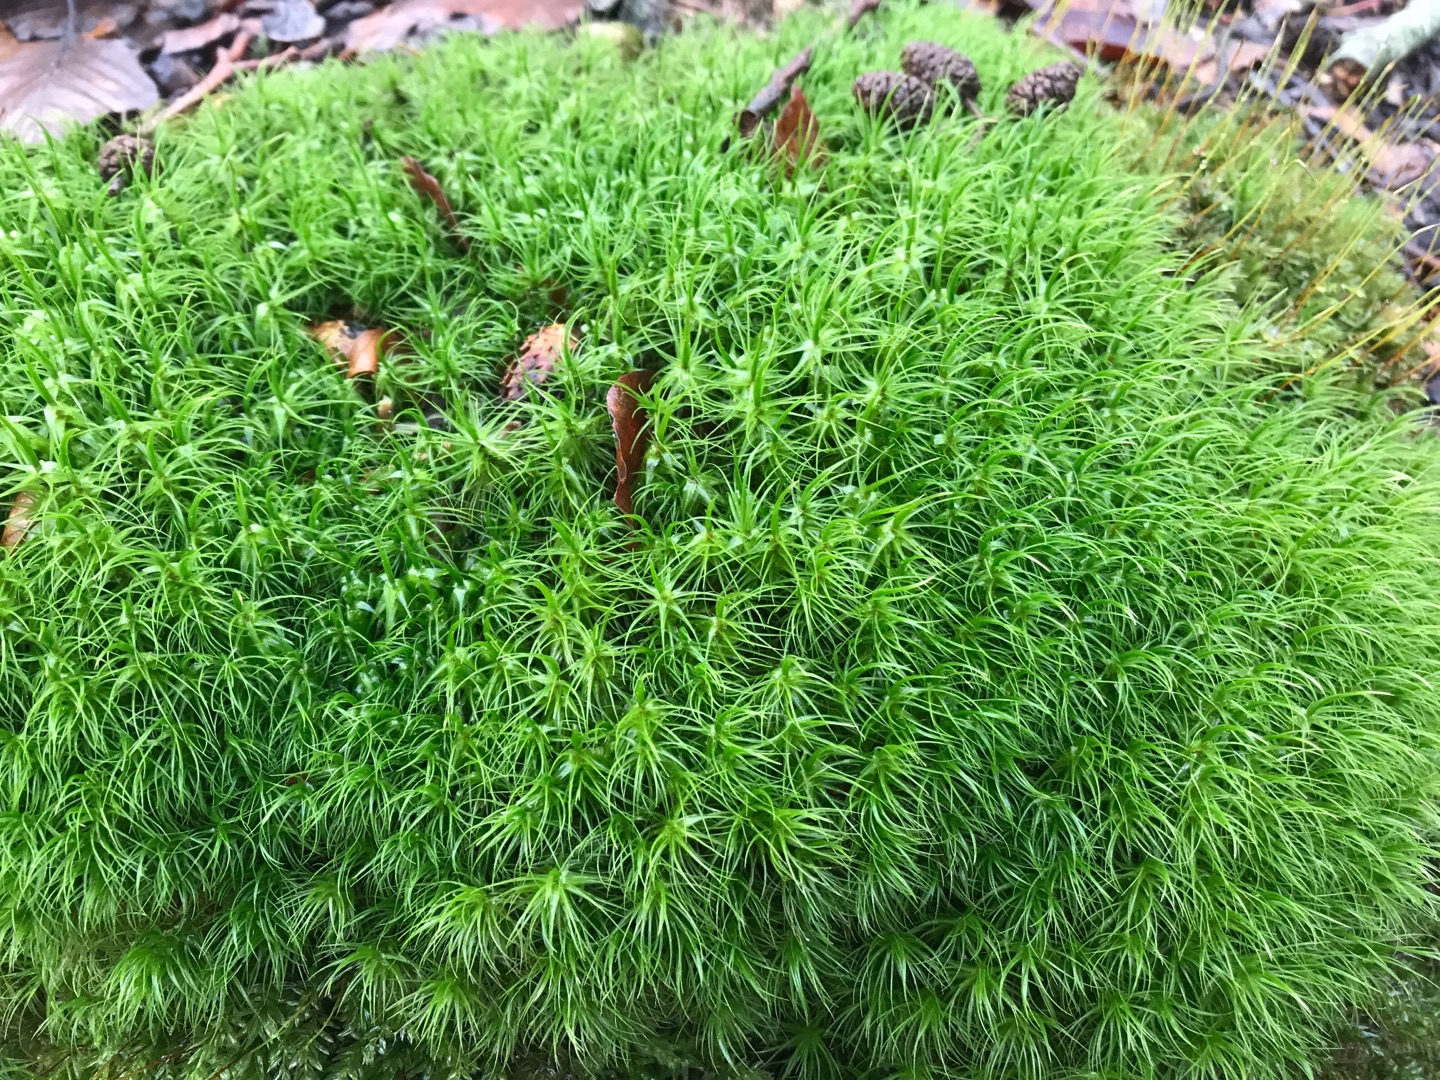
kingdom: Plantae
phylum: Bryophyta
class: Bryopsida
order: Dicranales
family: Dicranaceae
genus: Dicranum
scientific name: Dicranum majus
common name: Stor kløvtand
